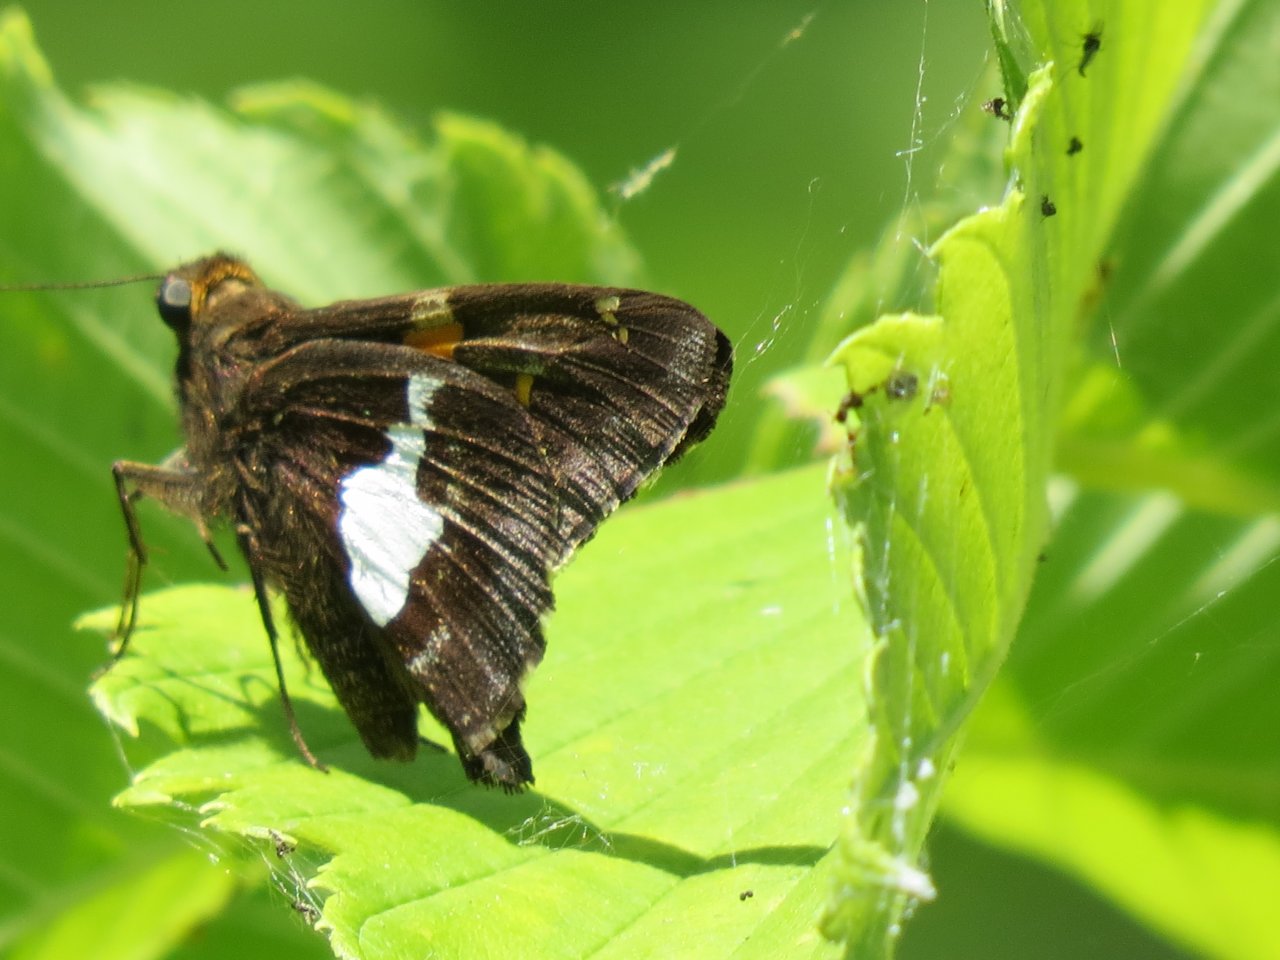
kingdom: Animalia
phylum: Arthropoda
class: Insecta
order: Lepidoptera
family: Hesperiidae
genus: Epargyreus
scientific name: Epargyreus clarus
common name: Silver-spotted Skipper
